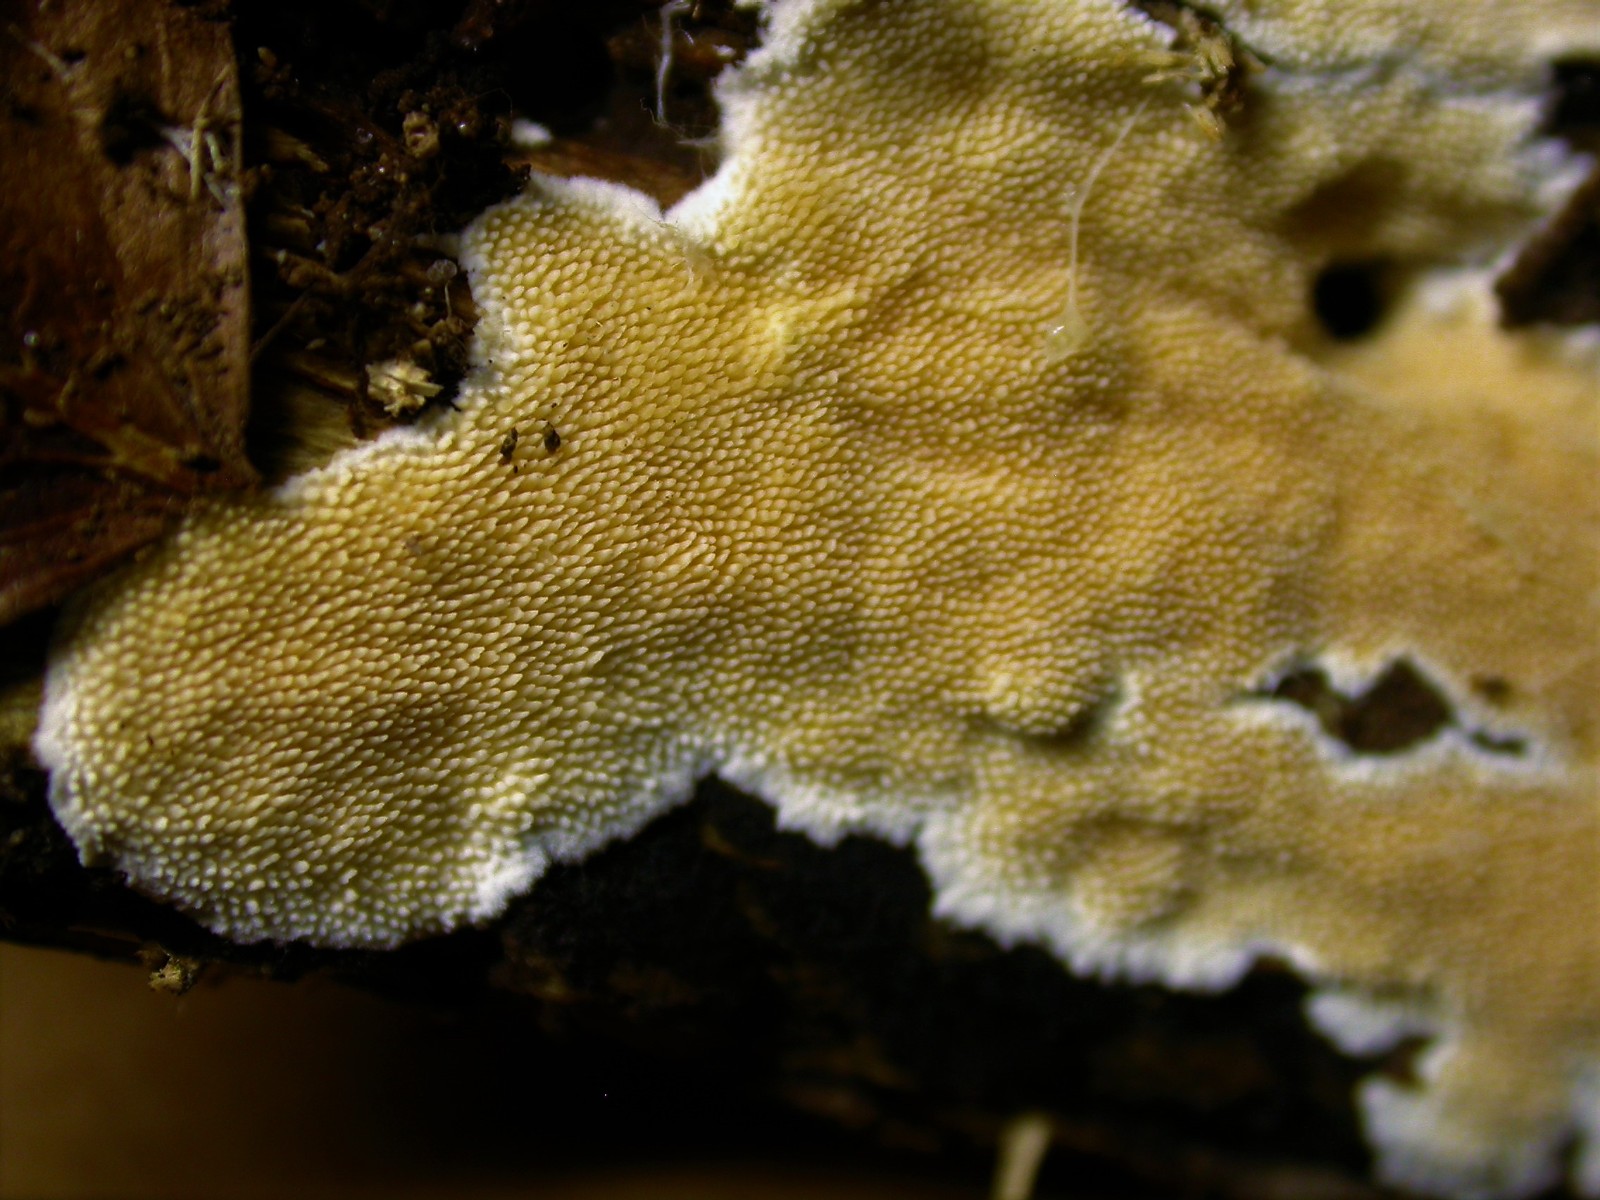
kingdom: Fungi
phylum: Basidiomycota
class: Agaricomycetes
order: Polyporales
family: Steccherinaceae
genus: Steccherinum
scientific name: Steccherinum ochraceum
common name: almindelig skønpig
